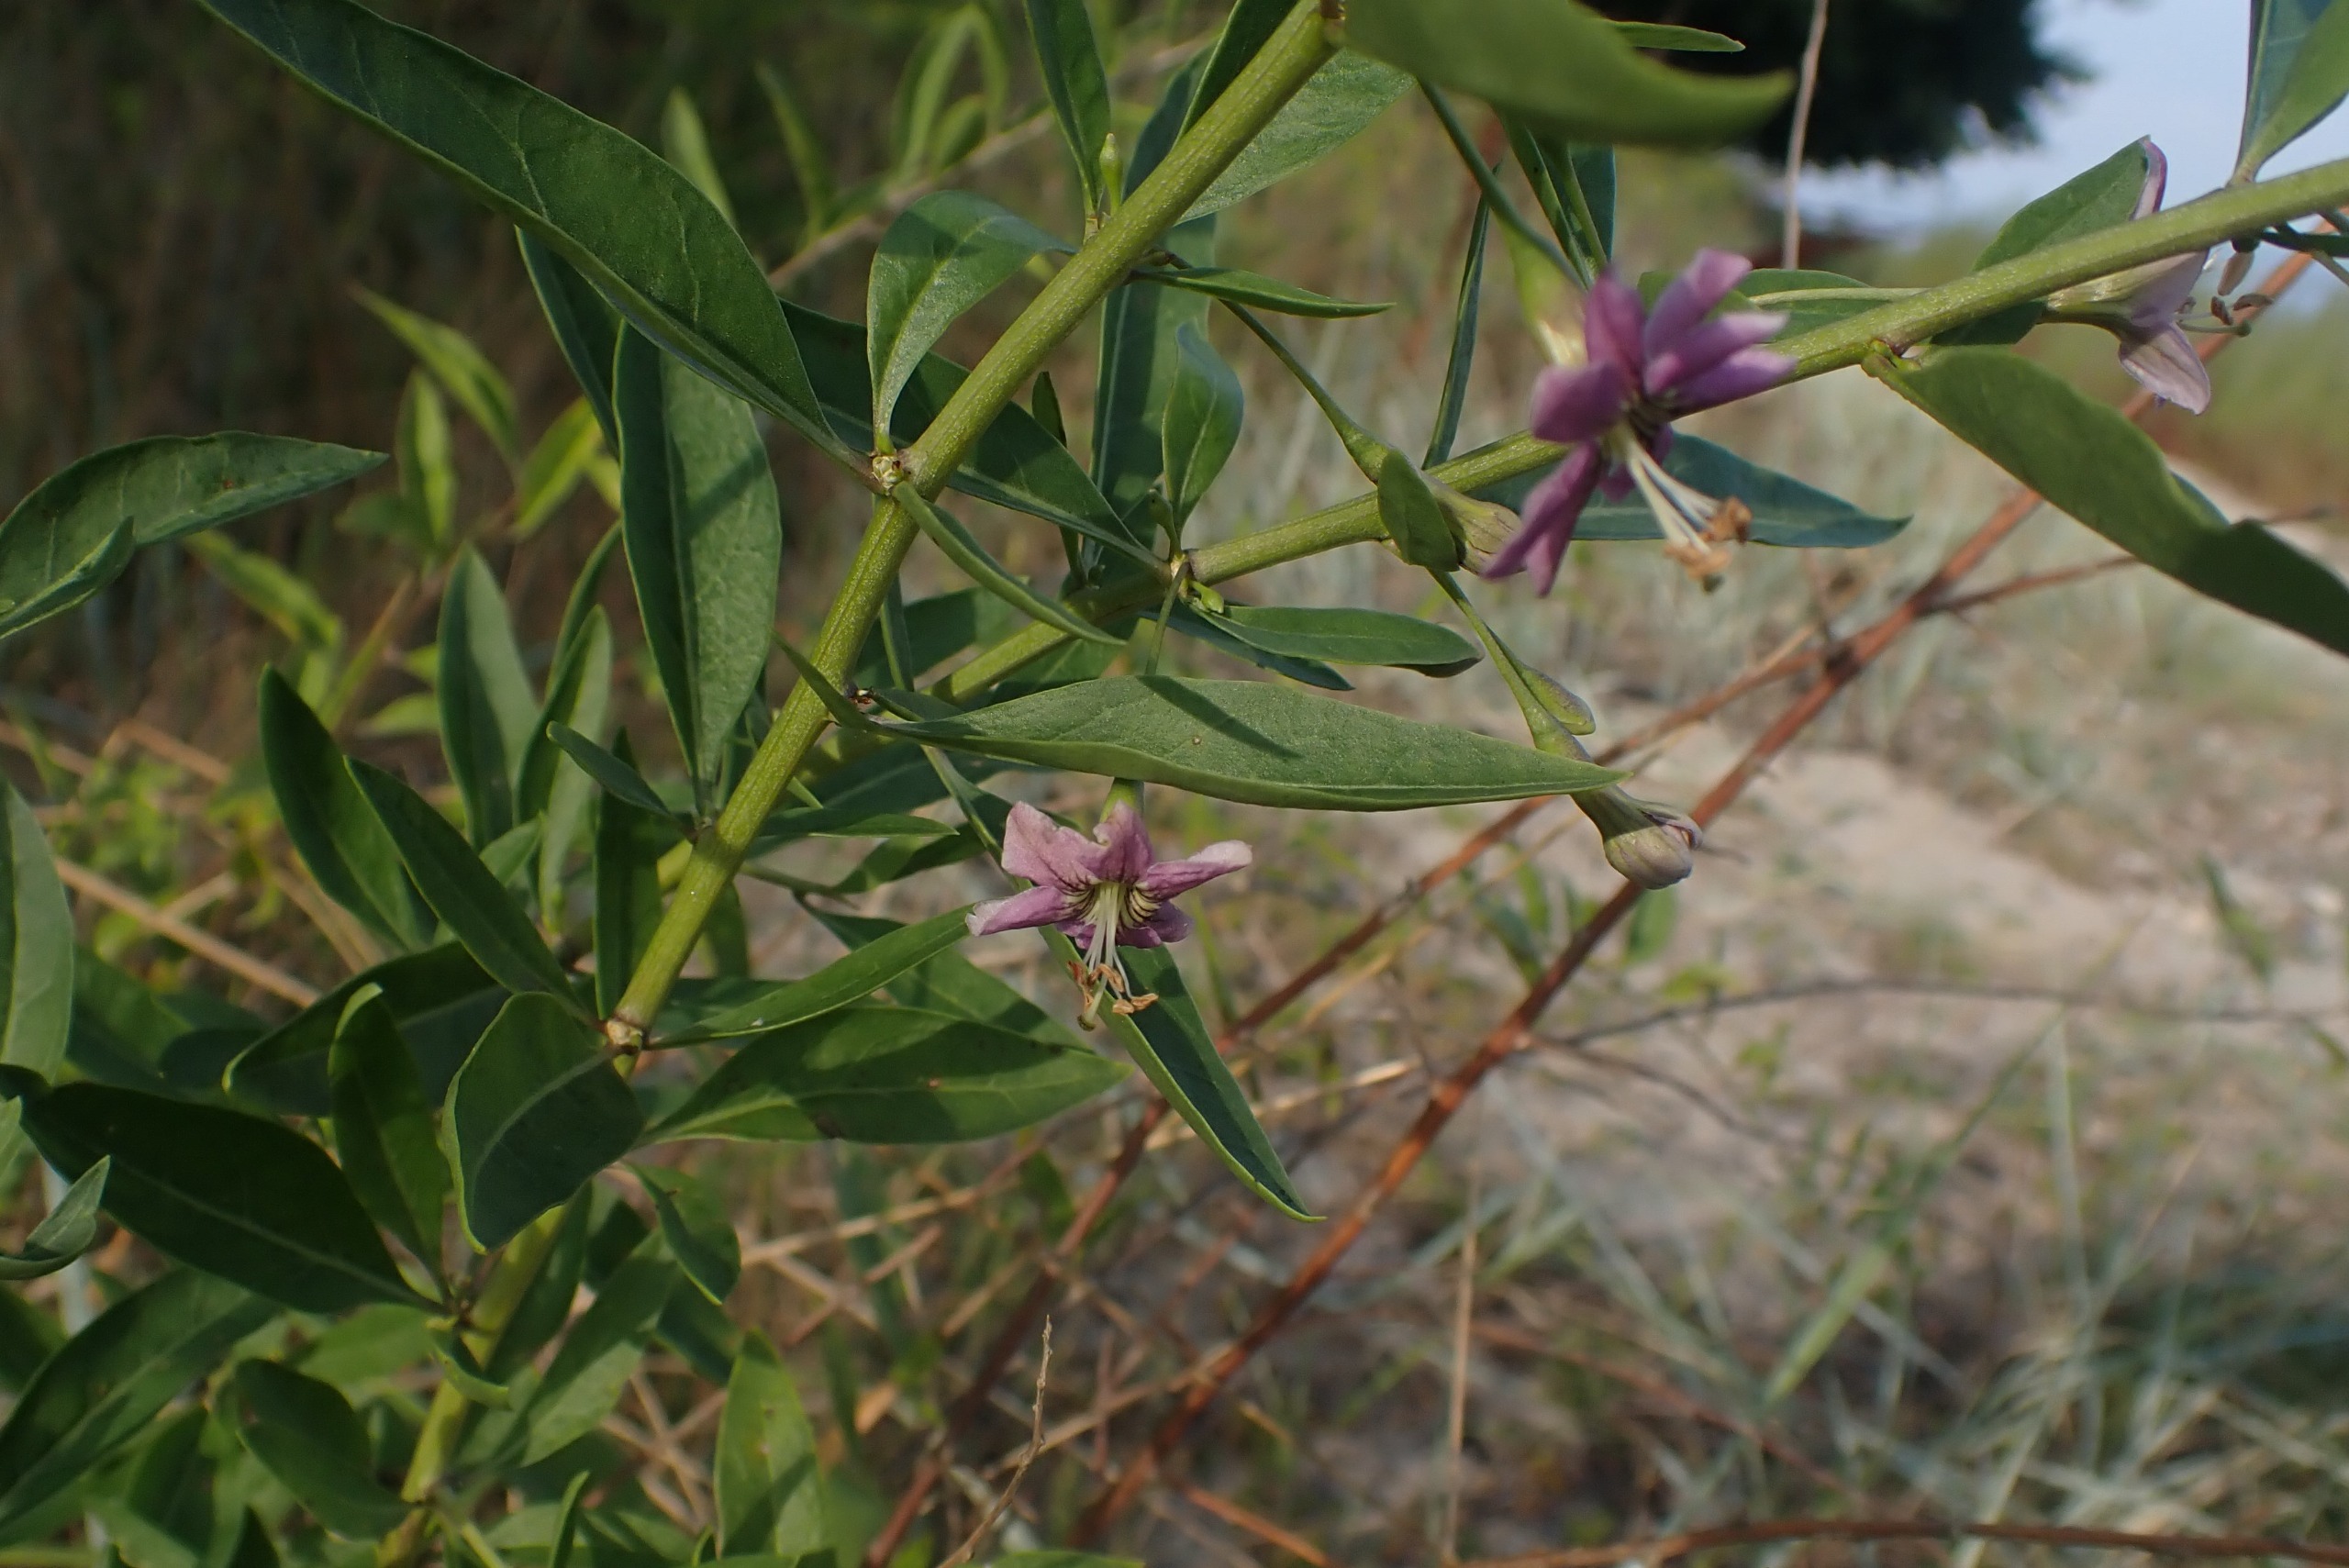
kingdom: Plantae
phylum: Tracheophyta
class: Magnoliopsida
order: Solanales
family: Solanaceae
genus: Lycium
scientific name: Lycium barbarum
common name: Bukketorn
